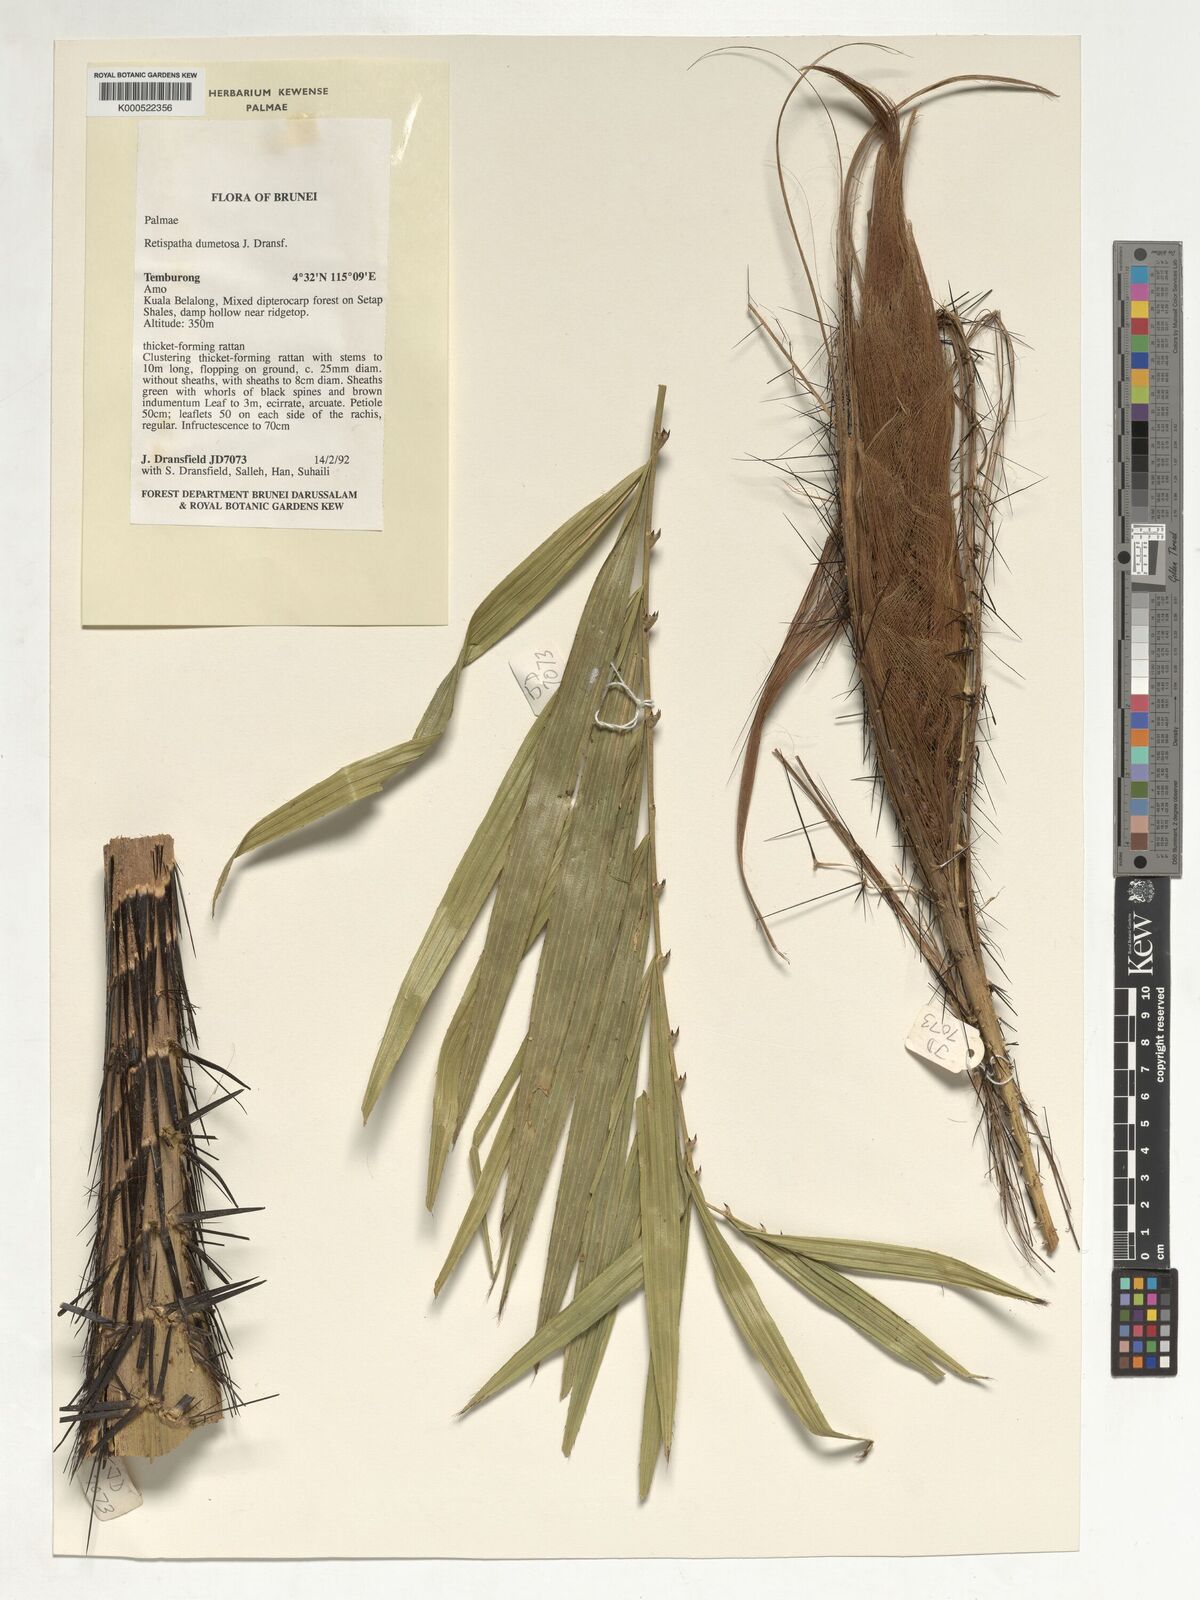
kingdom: Plantae
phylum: Tracheophyta
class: Liliopsida
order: Arecales
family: Arecaceae
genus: Calamus
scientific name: Calamus dumetosus
